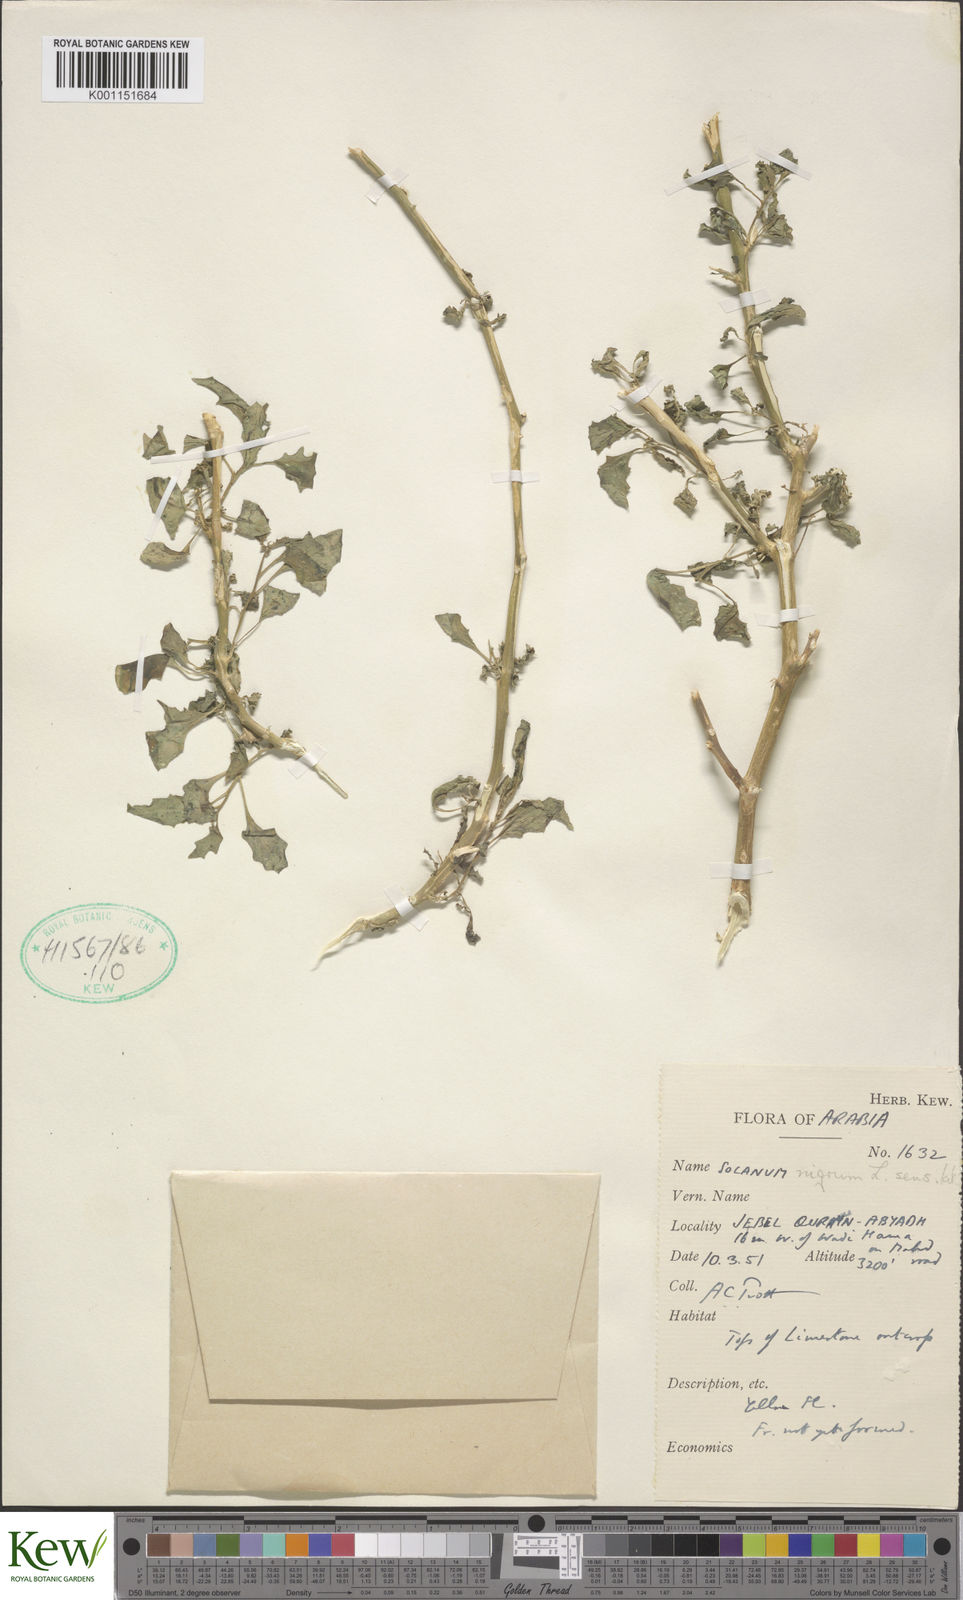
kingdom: Plantae
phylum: Tracheophyta
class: Magnoliopsida
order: Solanales
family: Solanaceae
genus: Solanum
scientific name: Solanum nigrum
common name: Black nightshade
